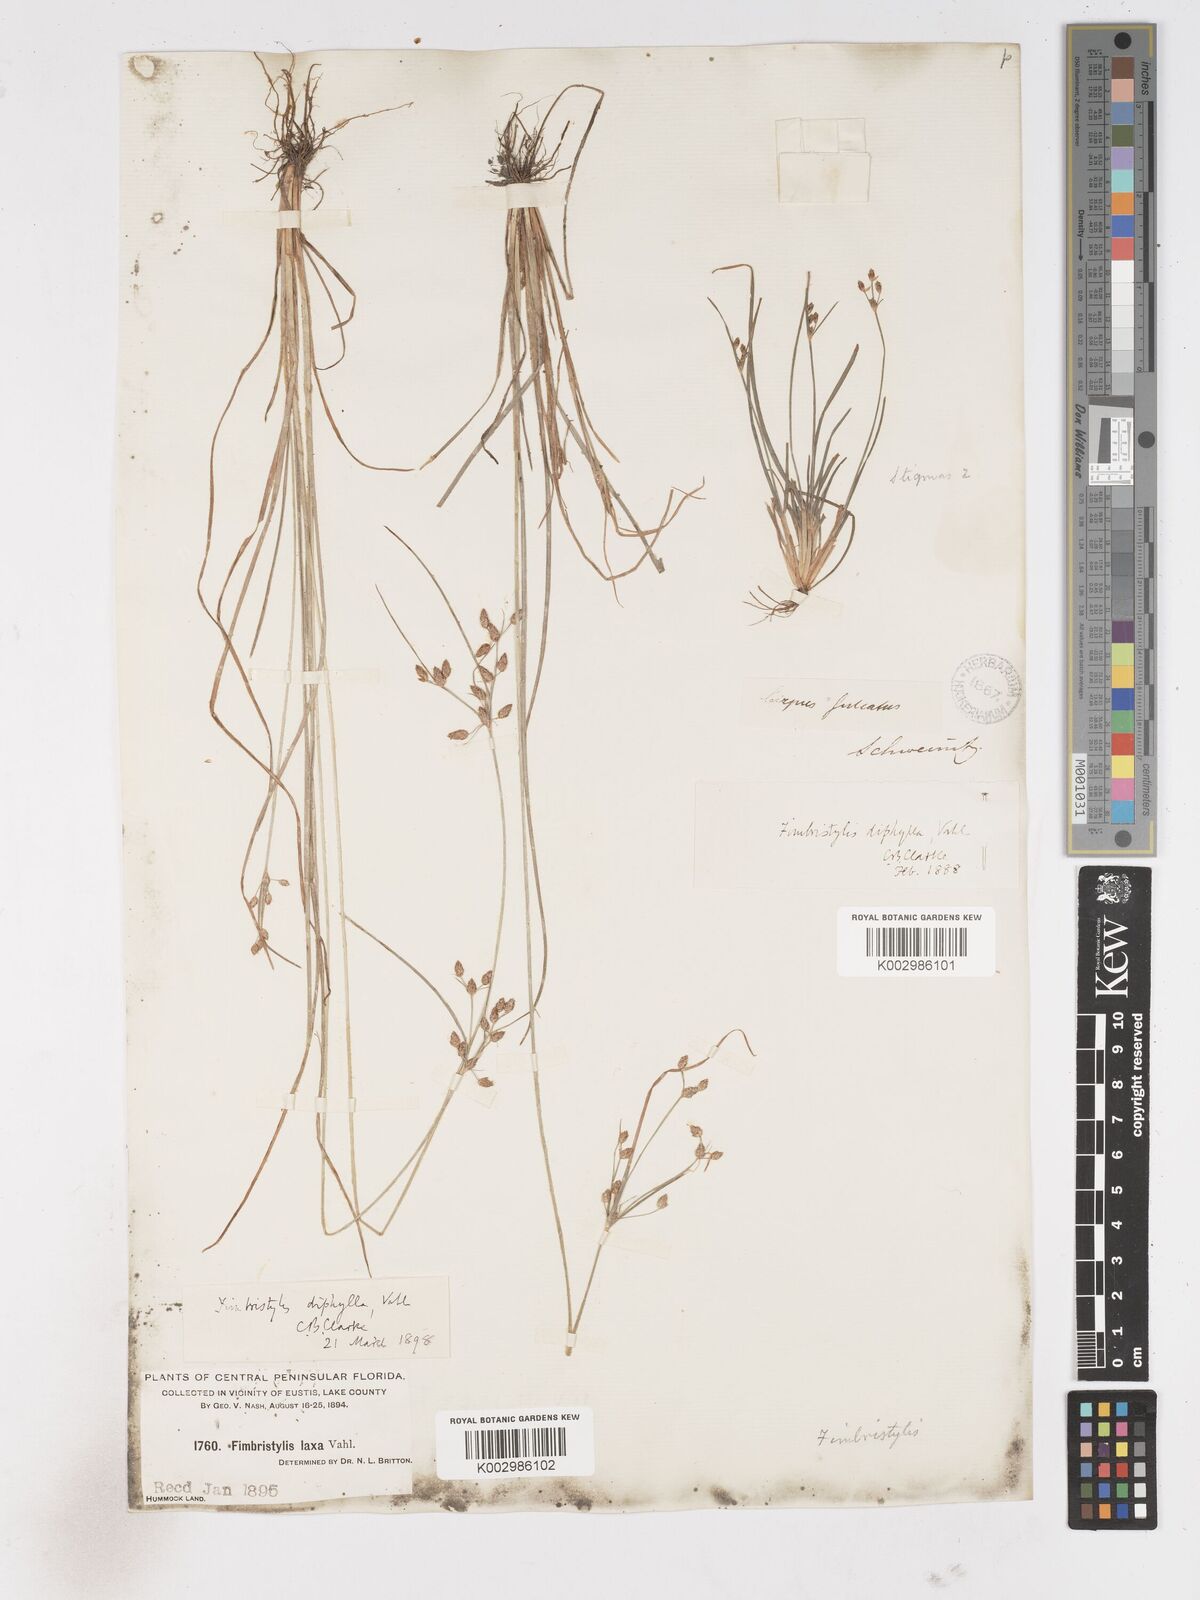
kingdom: Plantae
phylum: Tracheophyta
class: Liliopsida
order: Poales
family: Cyperaceae
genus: Fimbristylis
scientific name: Fimbristylis dichotoma
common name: Forked fimbry
